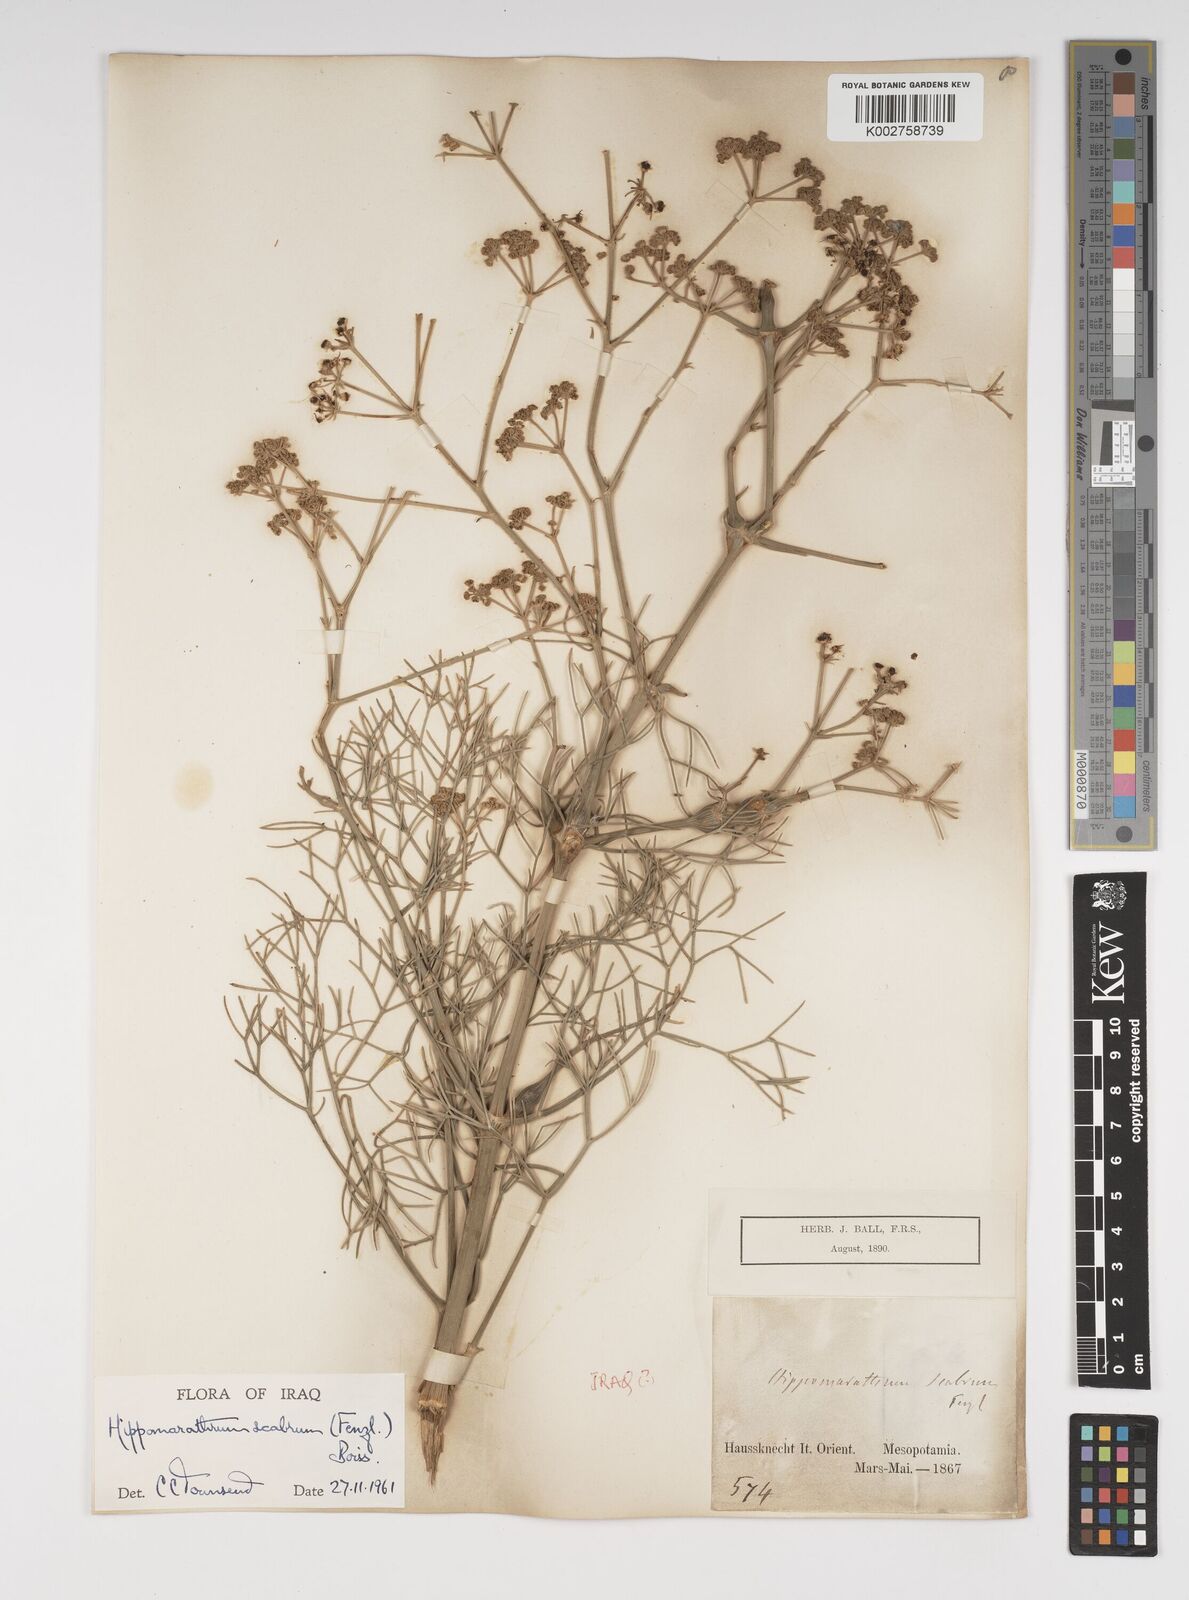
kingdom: Plantae
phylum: Tracheophyta
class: Magnoliopsida
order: Apiales
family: Apiaceae
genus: Cachrys
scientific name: Cachrys
